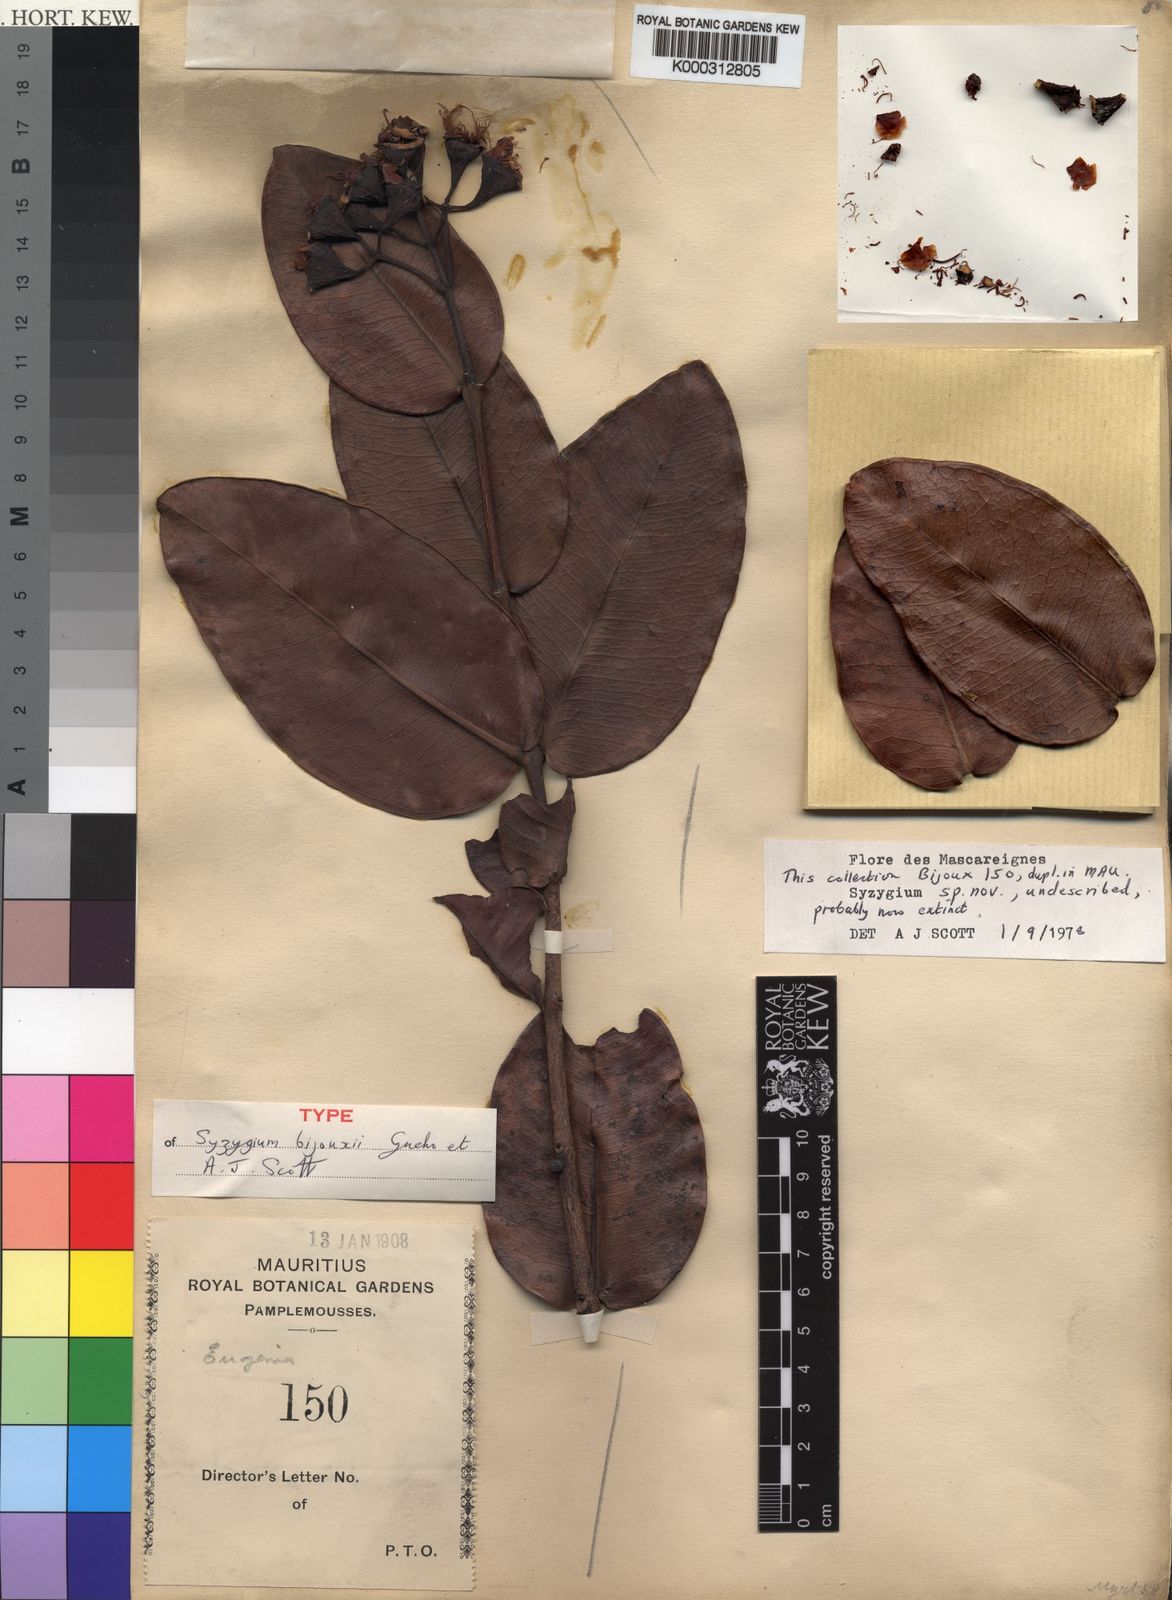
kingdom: Plantae
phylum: Tracheophyta
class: Magnoliopsida
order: Myrtales
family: Myrtaceae
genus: Syzygium
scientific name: Syzygium
